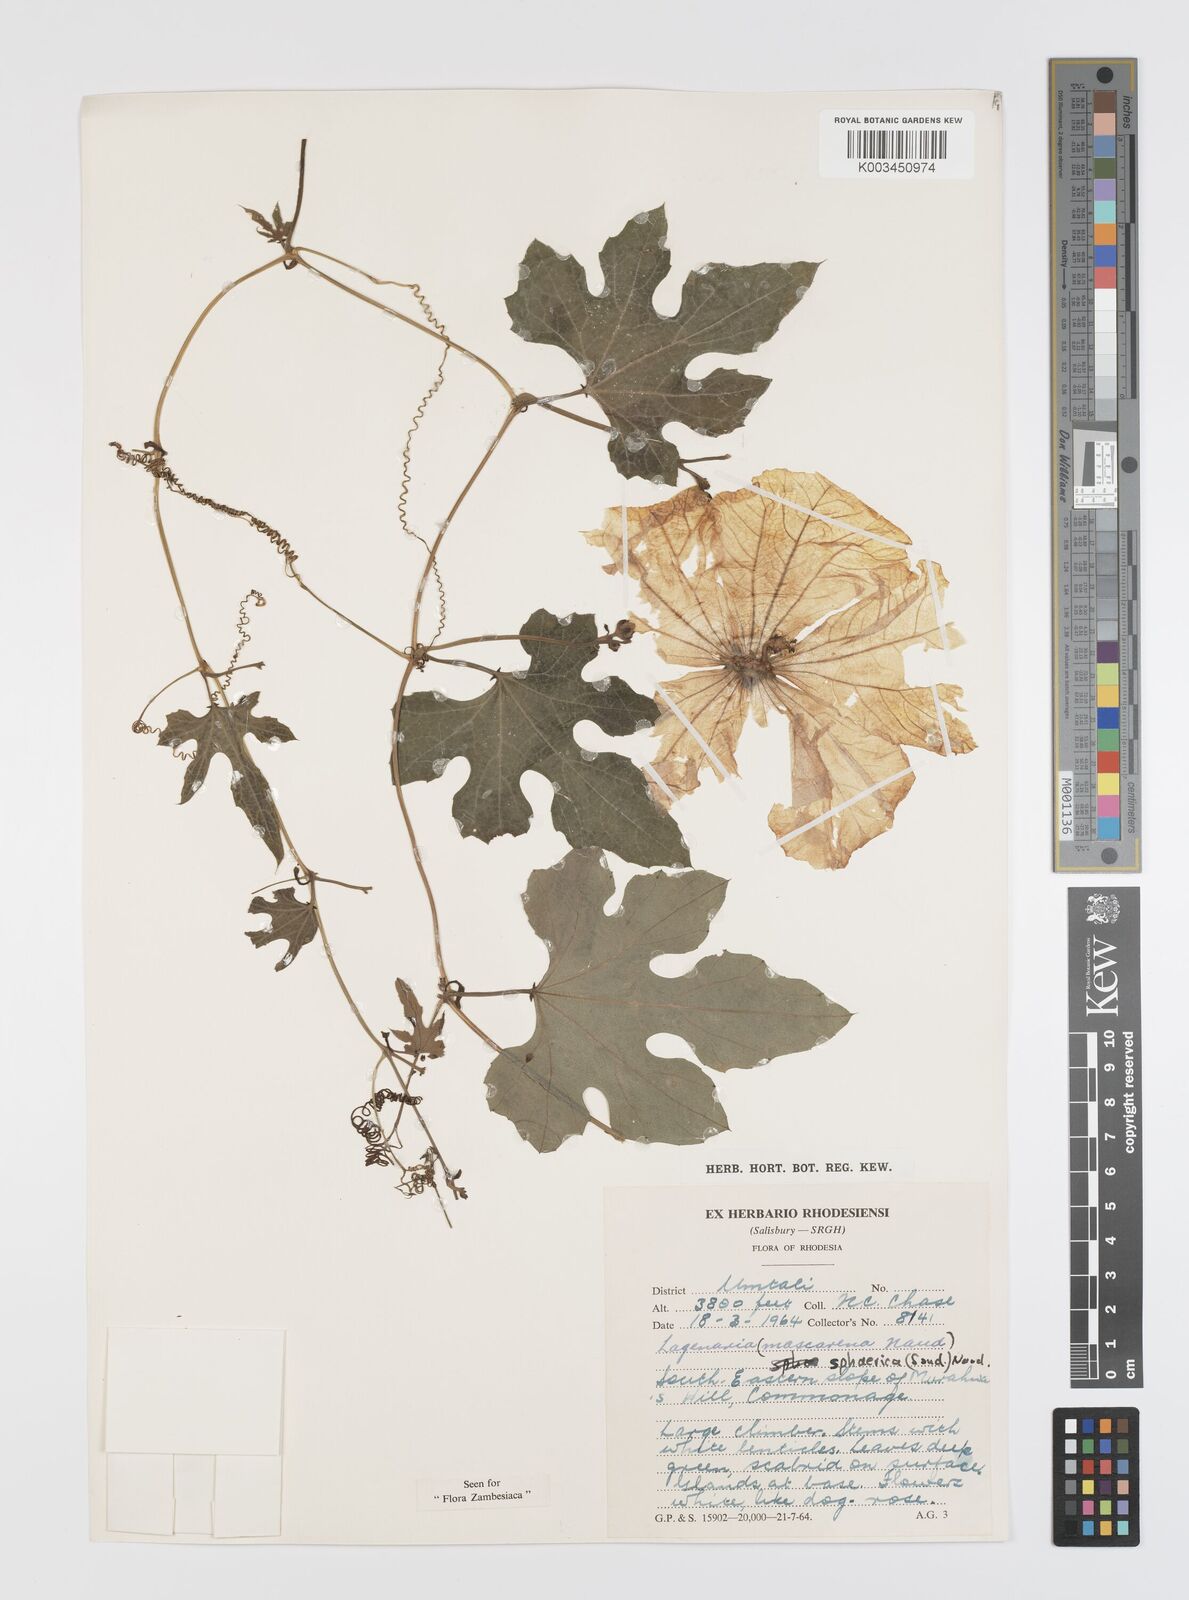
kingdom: Plantae
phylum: Tracheophyta
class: Magnoliopsida
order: Cucurbitales
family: Cucurbitaceae
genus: Lagenaria
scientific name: Lagenaria sphaerica
